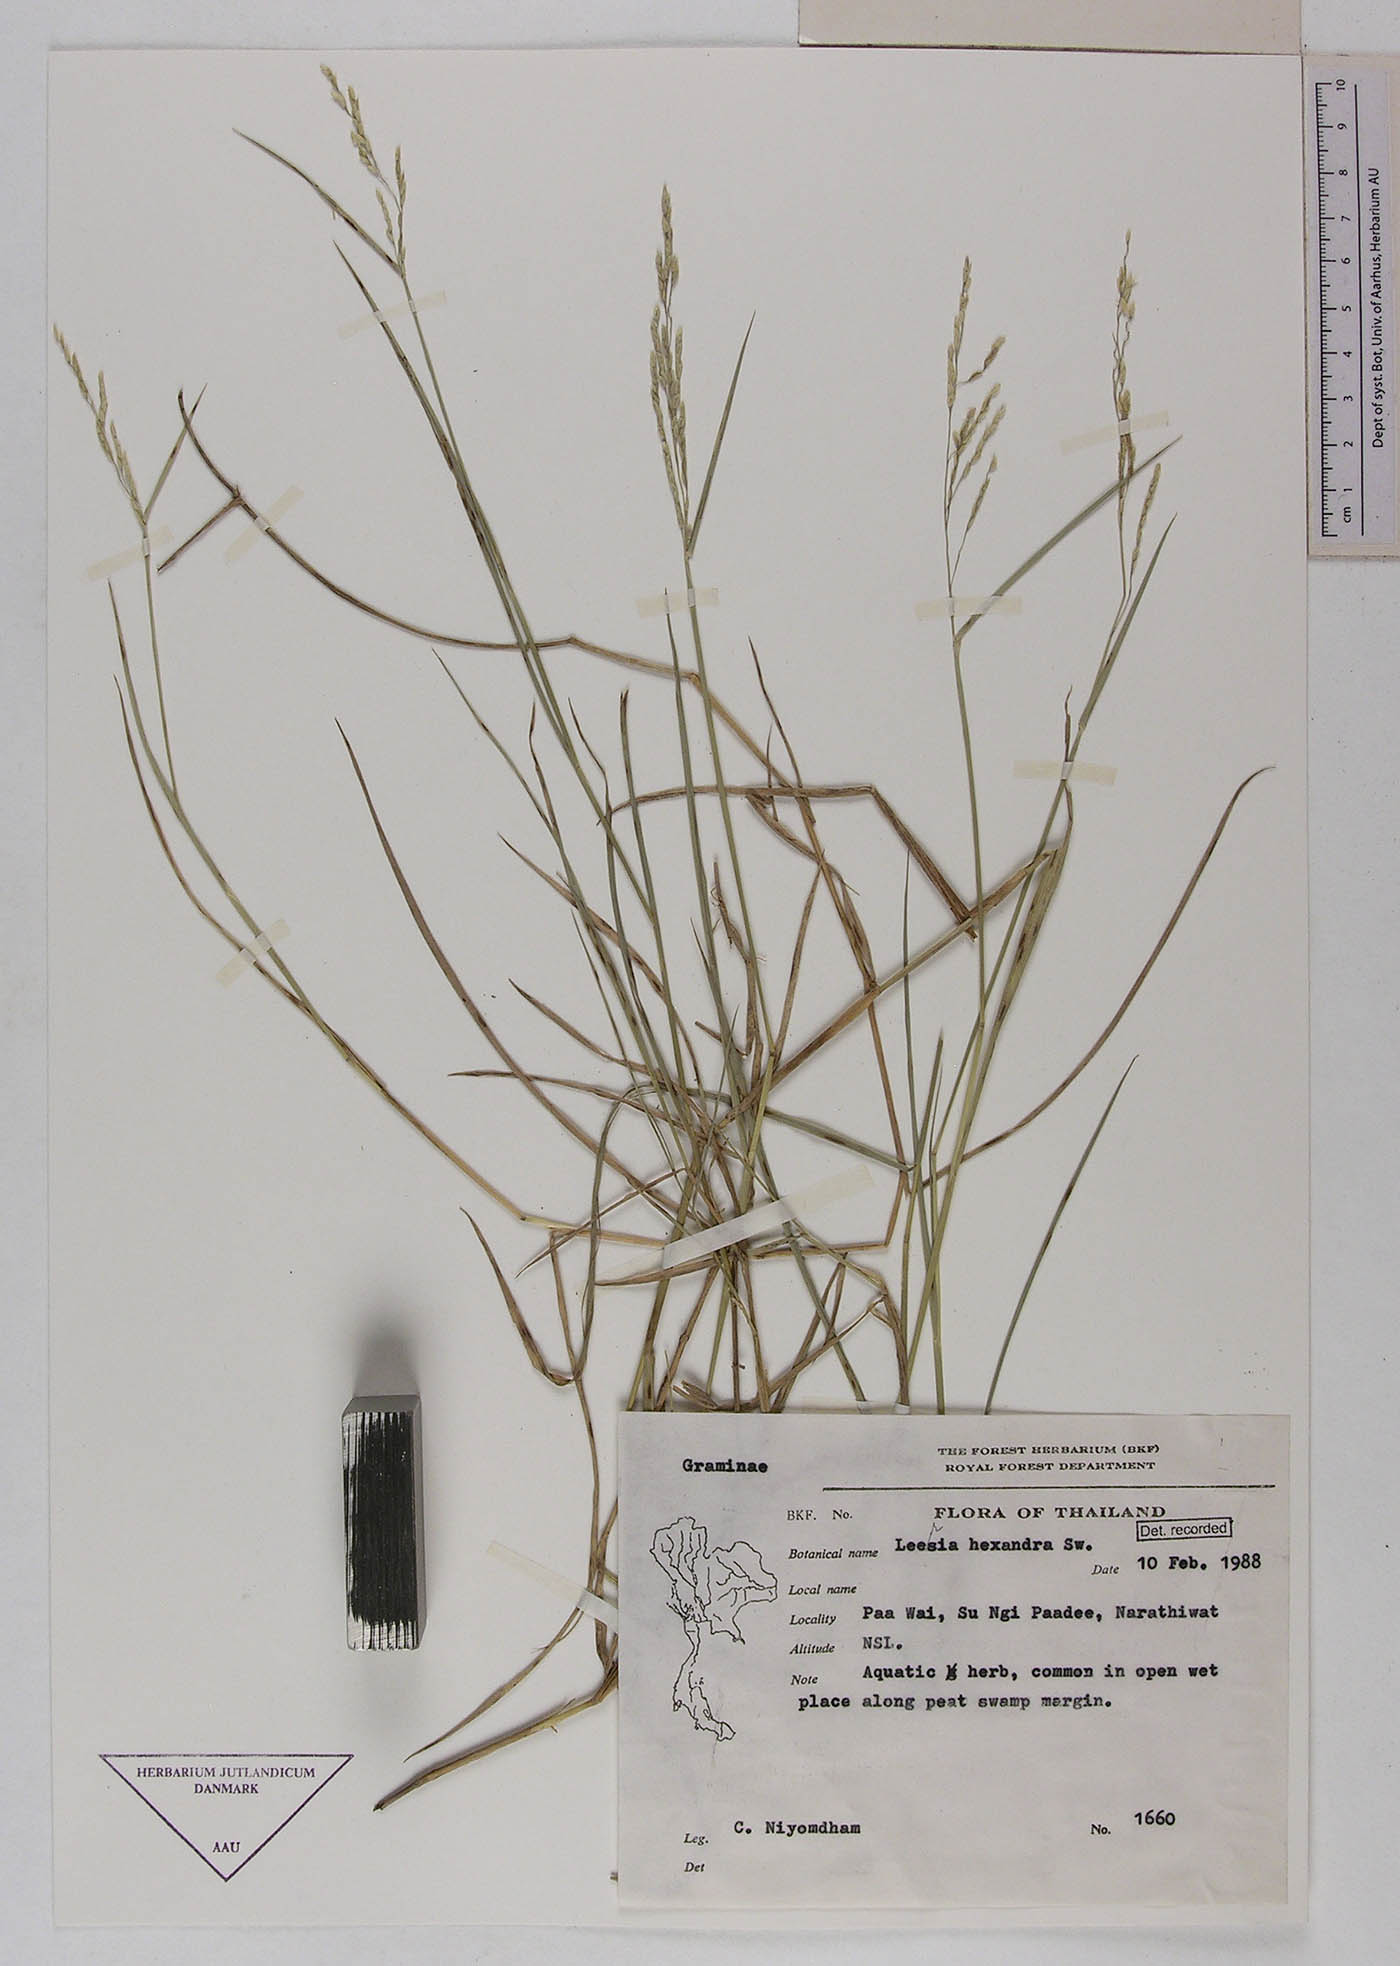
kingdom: Plantae
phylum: Tracheophyta
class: Liliopsida
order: Poales
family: Poaceae
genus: Leersia
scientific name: Leersia hexandra
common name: Southern cut grass
